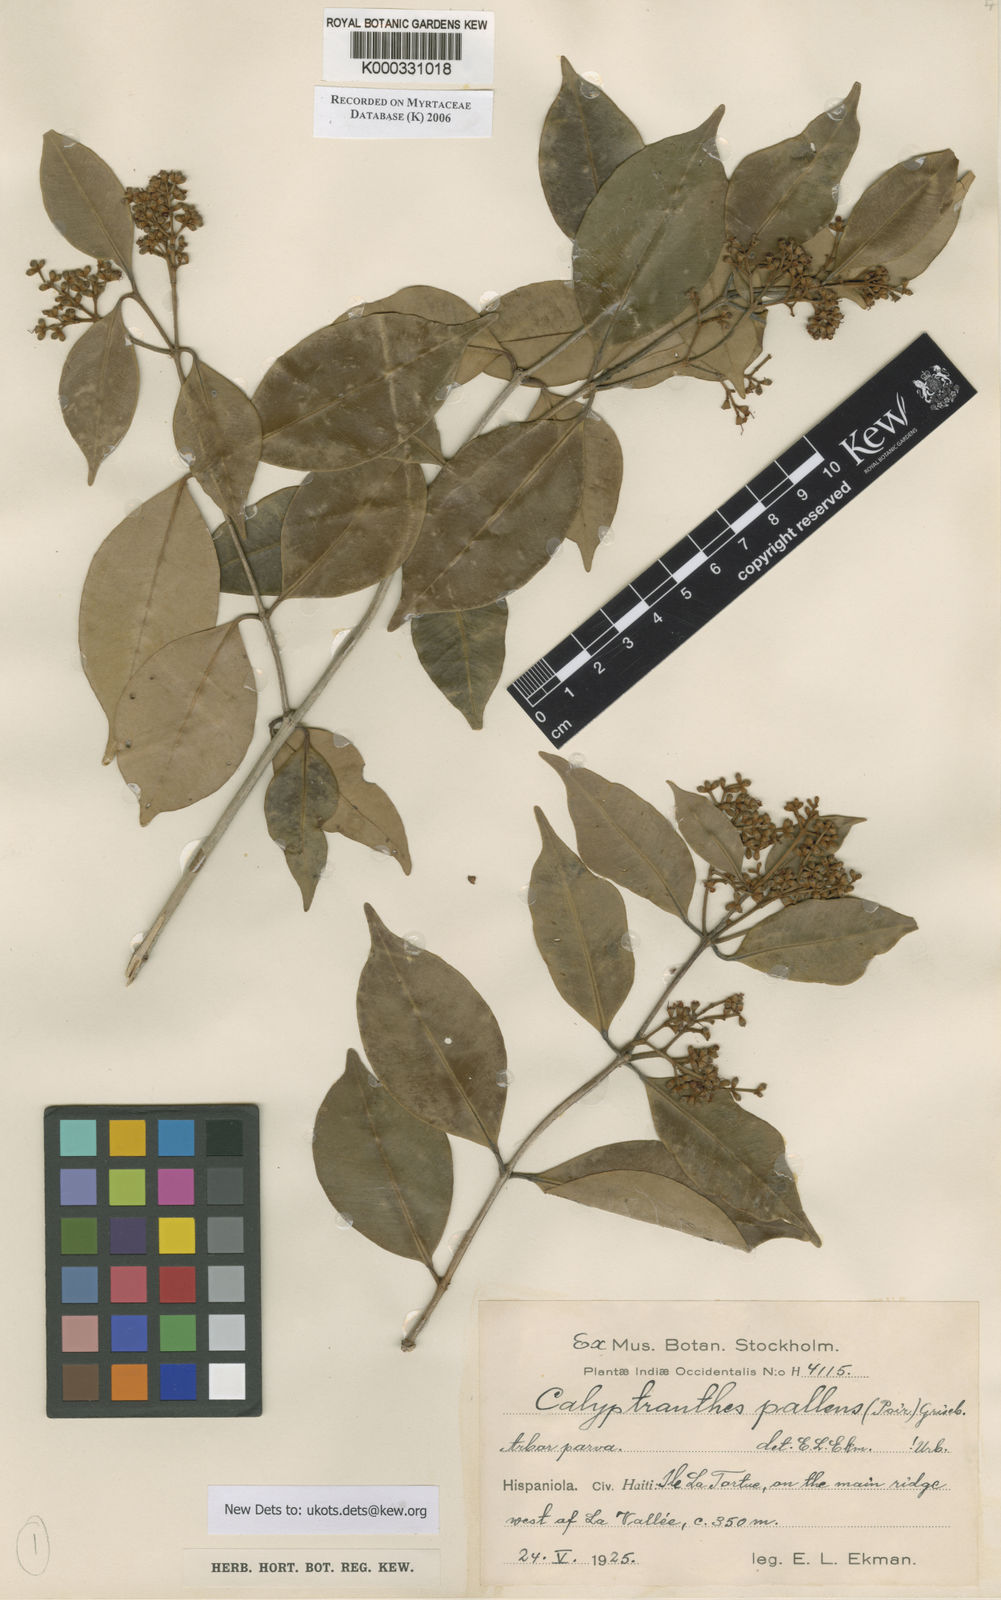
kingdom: Plantae
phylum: Tracheophyta
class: Magnoliopsida
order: Myrtales
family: Myrtaceae
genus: Myrcia
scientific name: Myrcia neopallens
